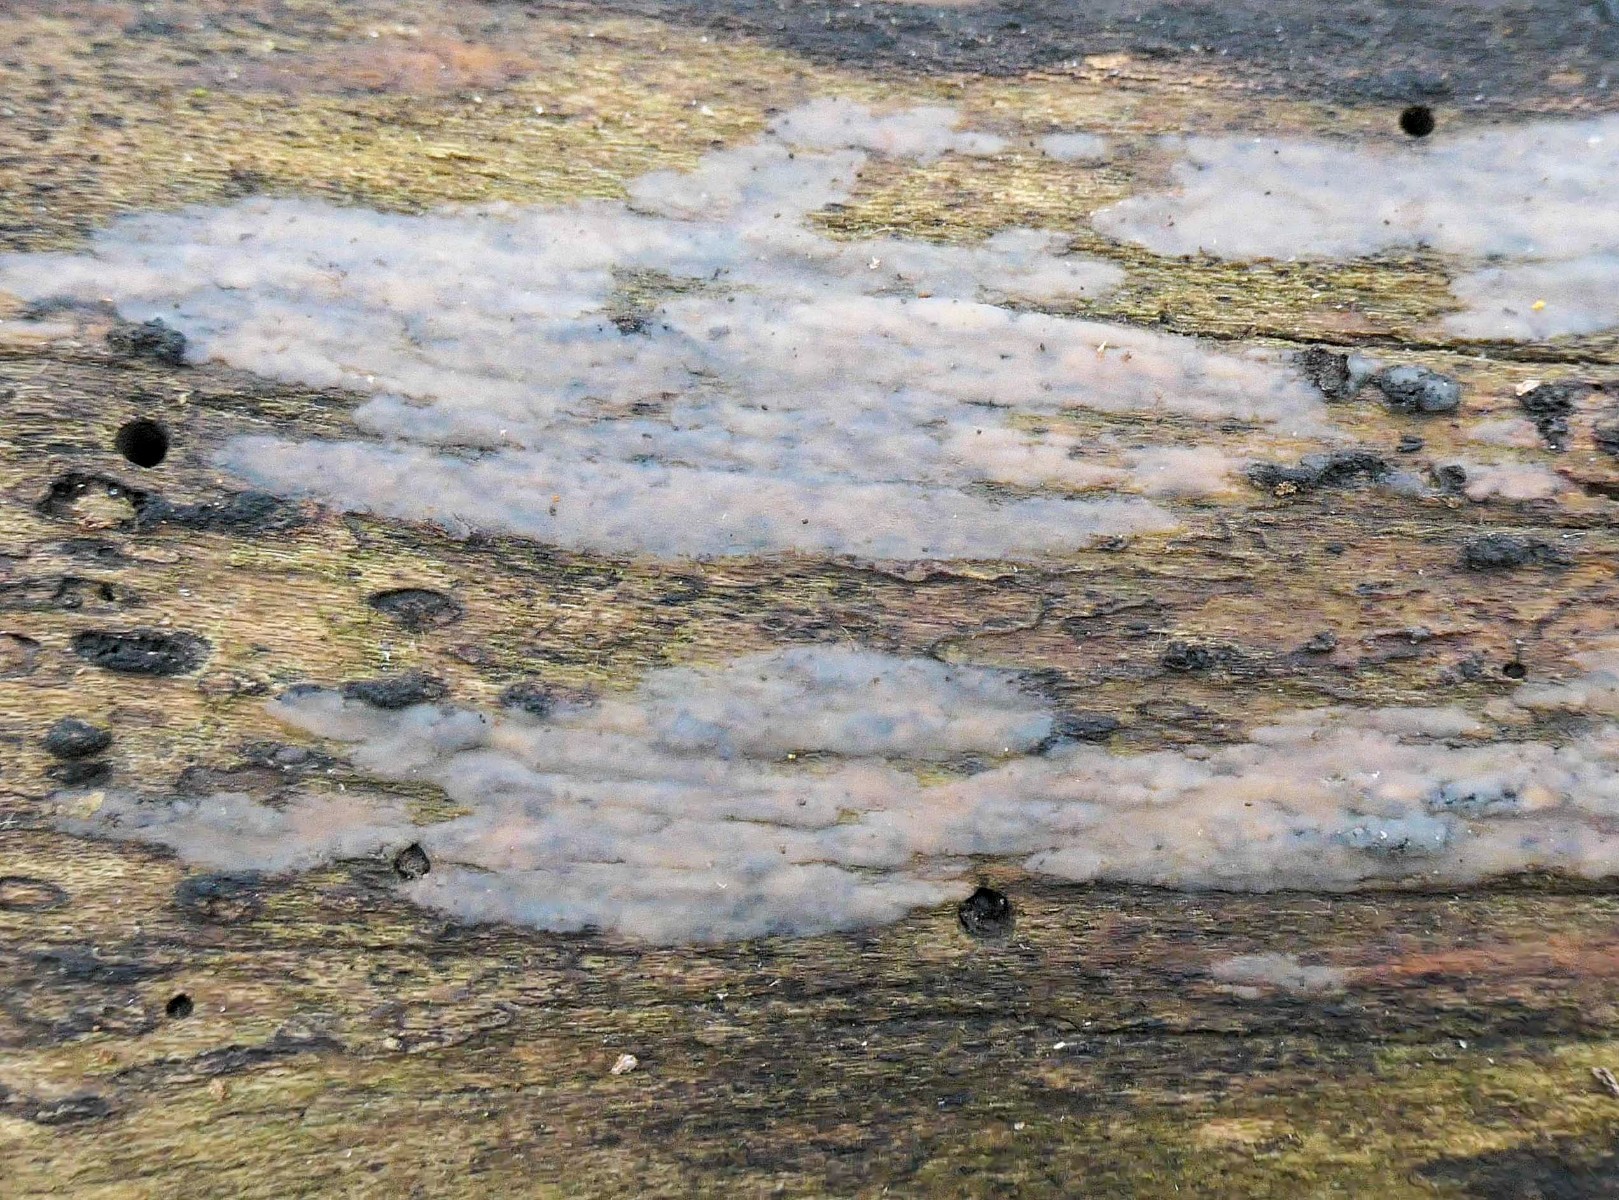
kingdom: Fungi
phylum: Basidiomycota
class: Tremellomycetes
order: Tremellales
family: Exidiaceae
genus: Exidiopsis
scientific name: Exidiopsis effusa
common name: smuk bævrehinde
